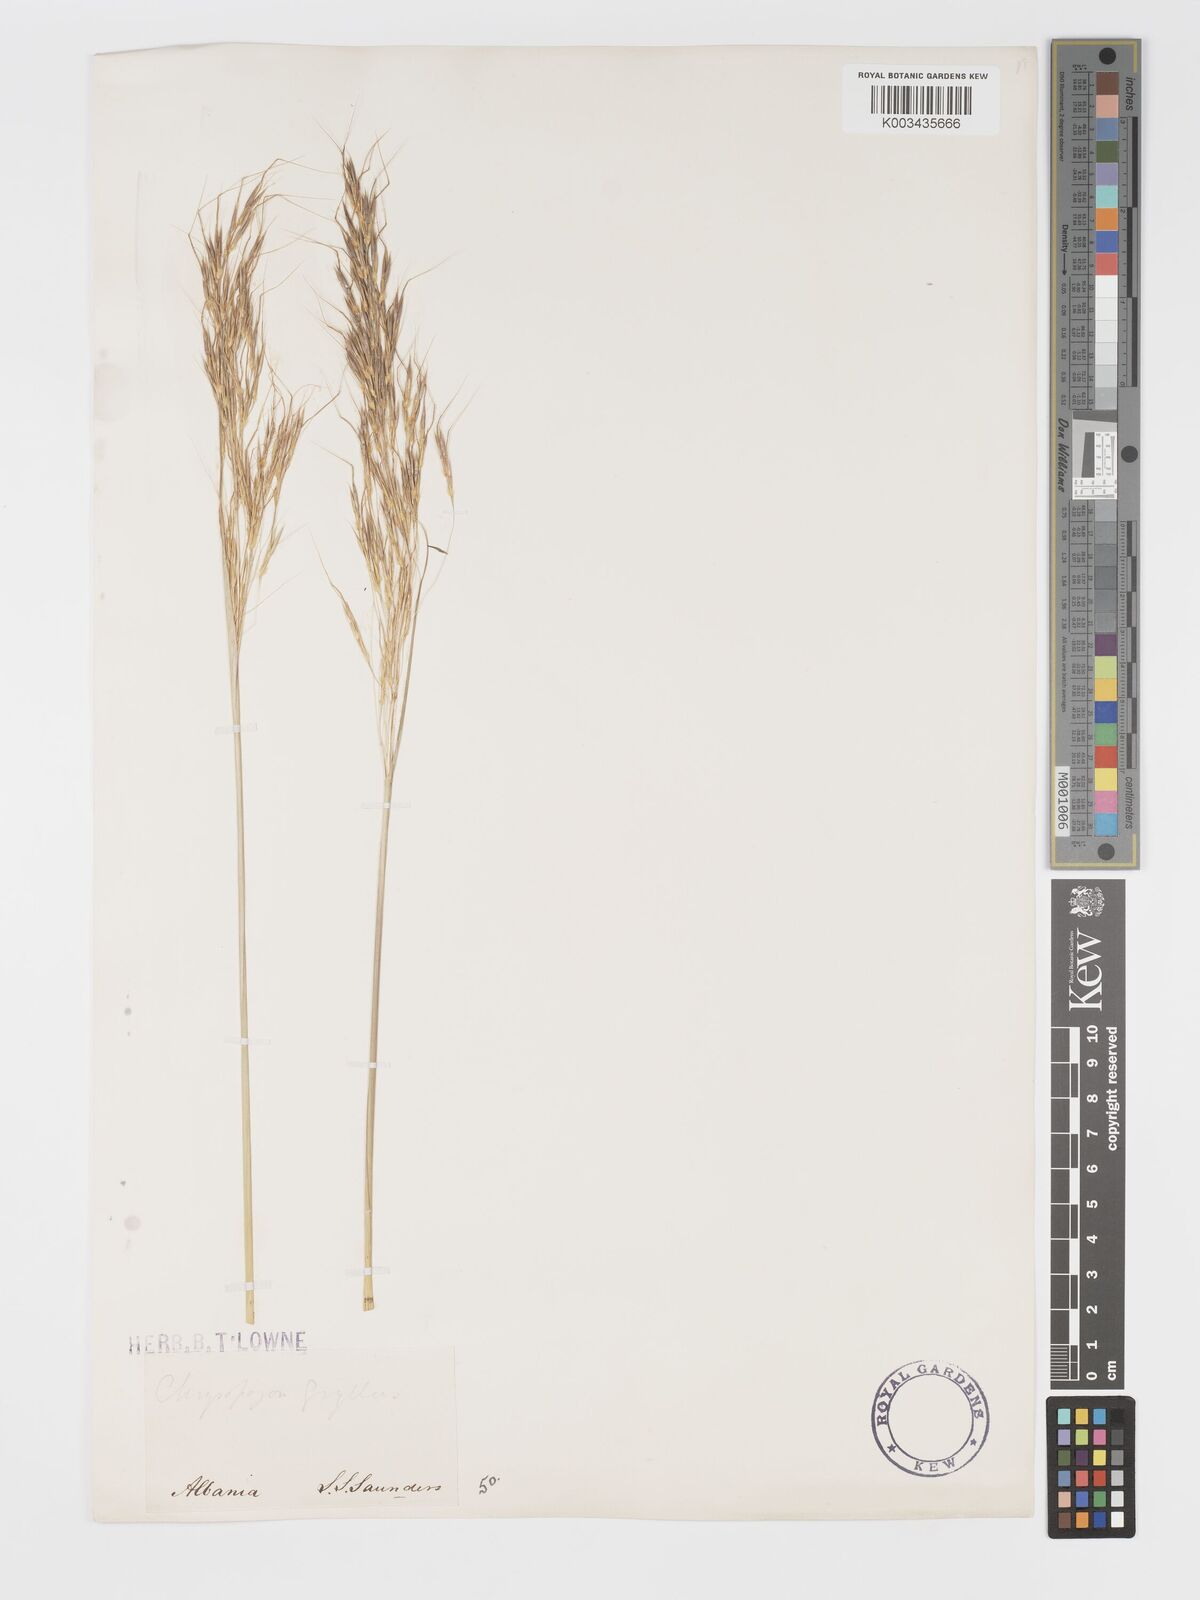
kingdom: Plantae
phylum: Tracheophyta
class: Liliopsida
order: Poales
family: Poaceae
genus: Chrysopogon
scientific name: Chrysopogon gryllus
